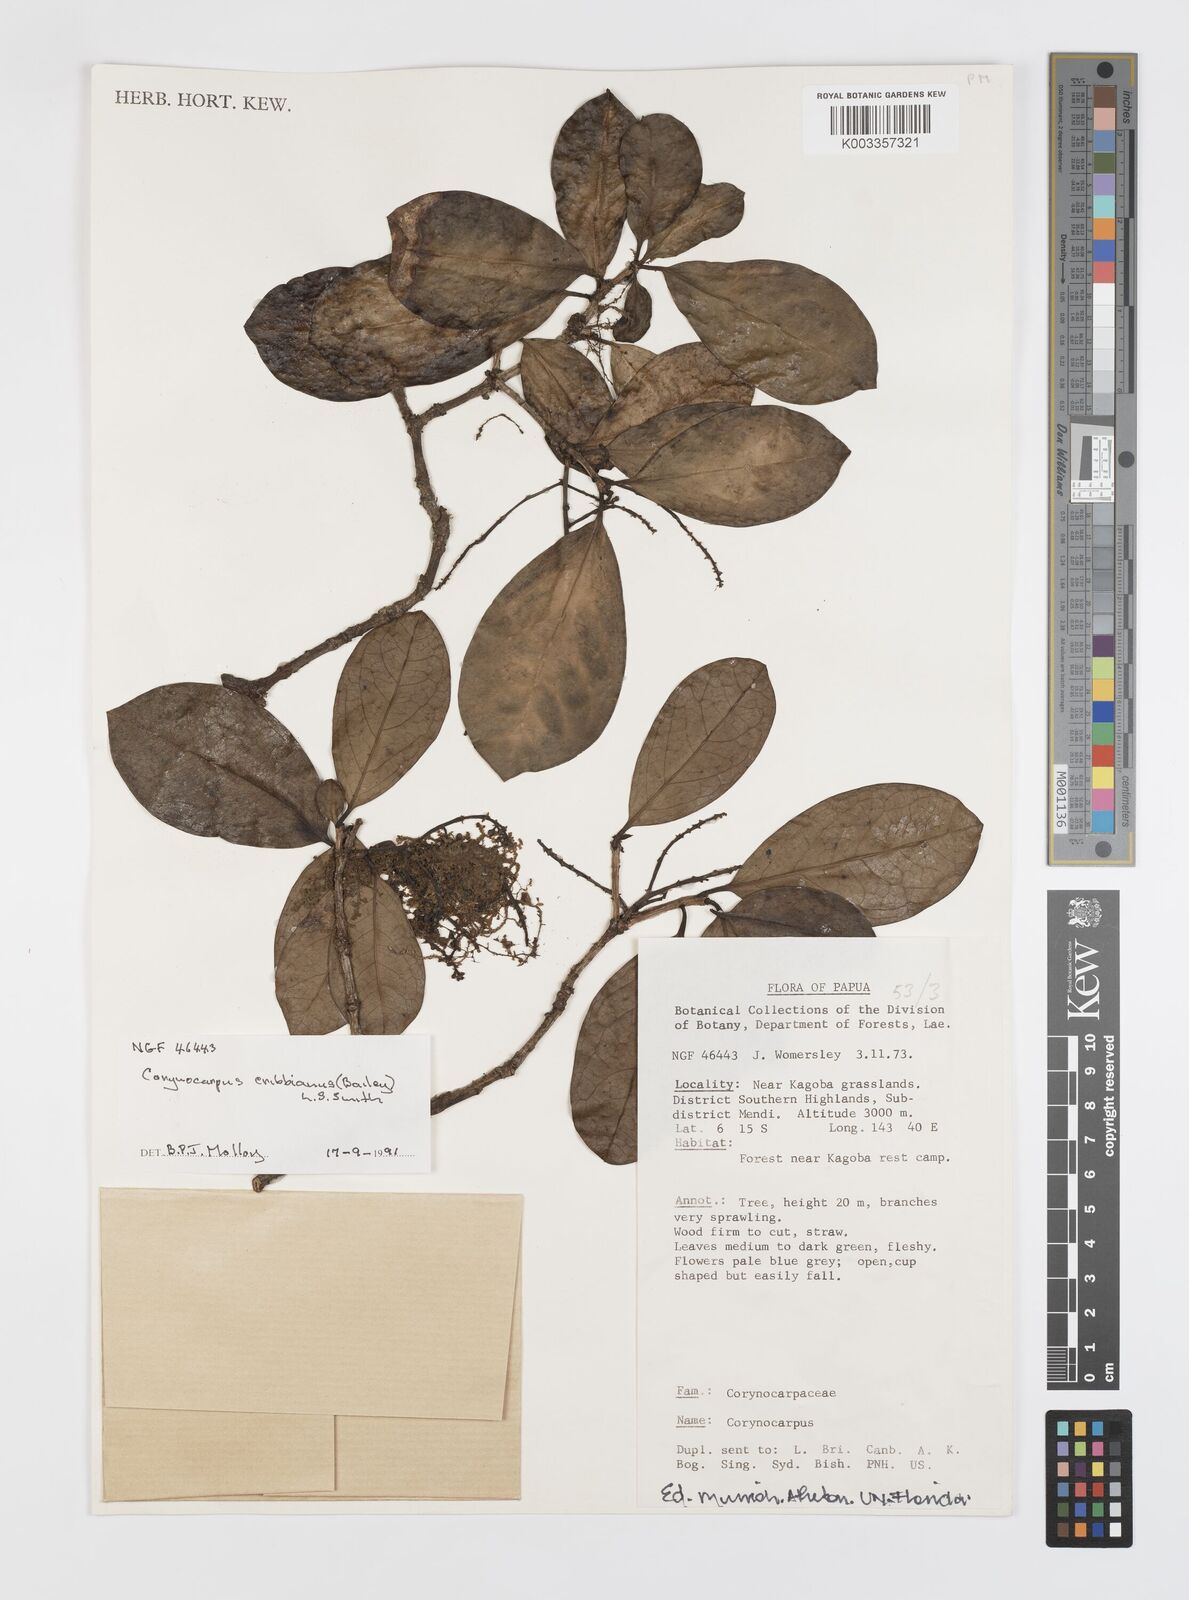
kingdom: Plantae
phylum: Tracheophyta
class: Magnoliopsida
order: Cucurbitales
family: Corynocarpaceae
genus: Corynocarpus
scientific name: Corynocarpus cribbianus
